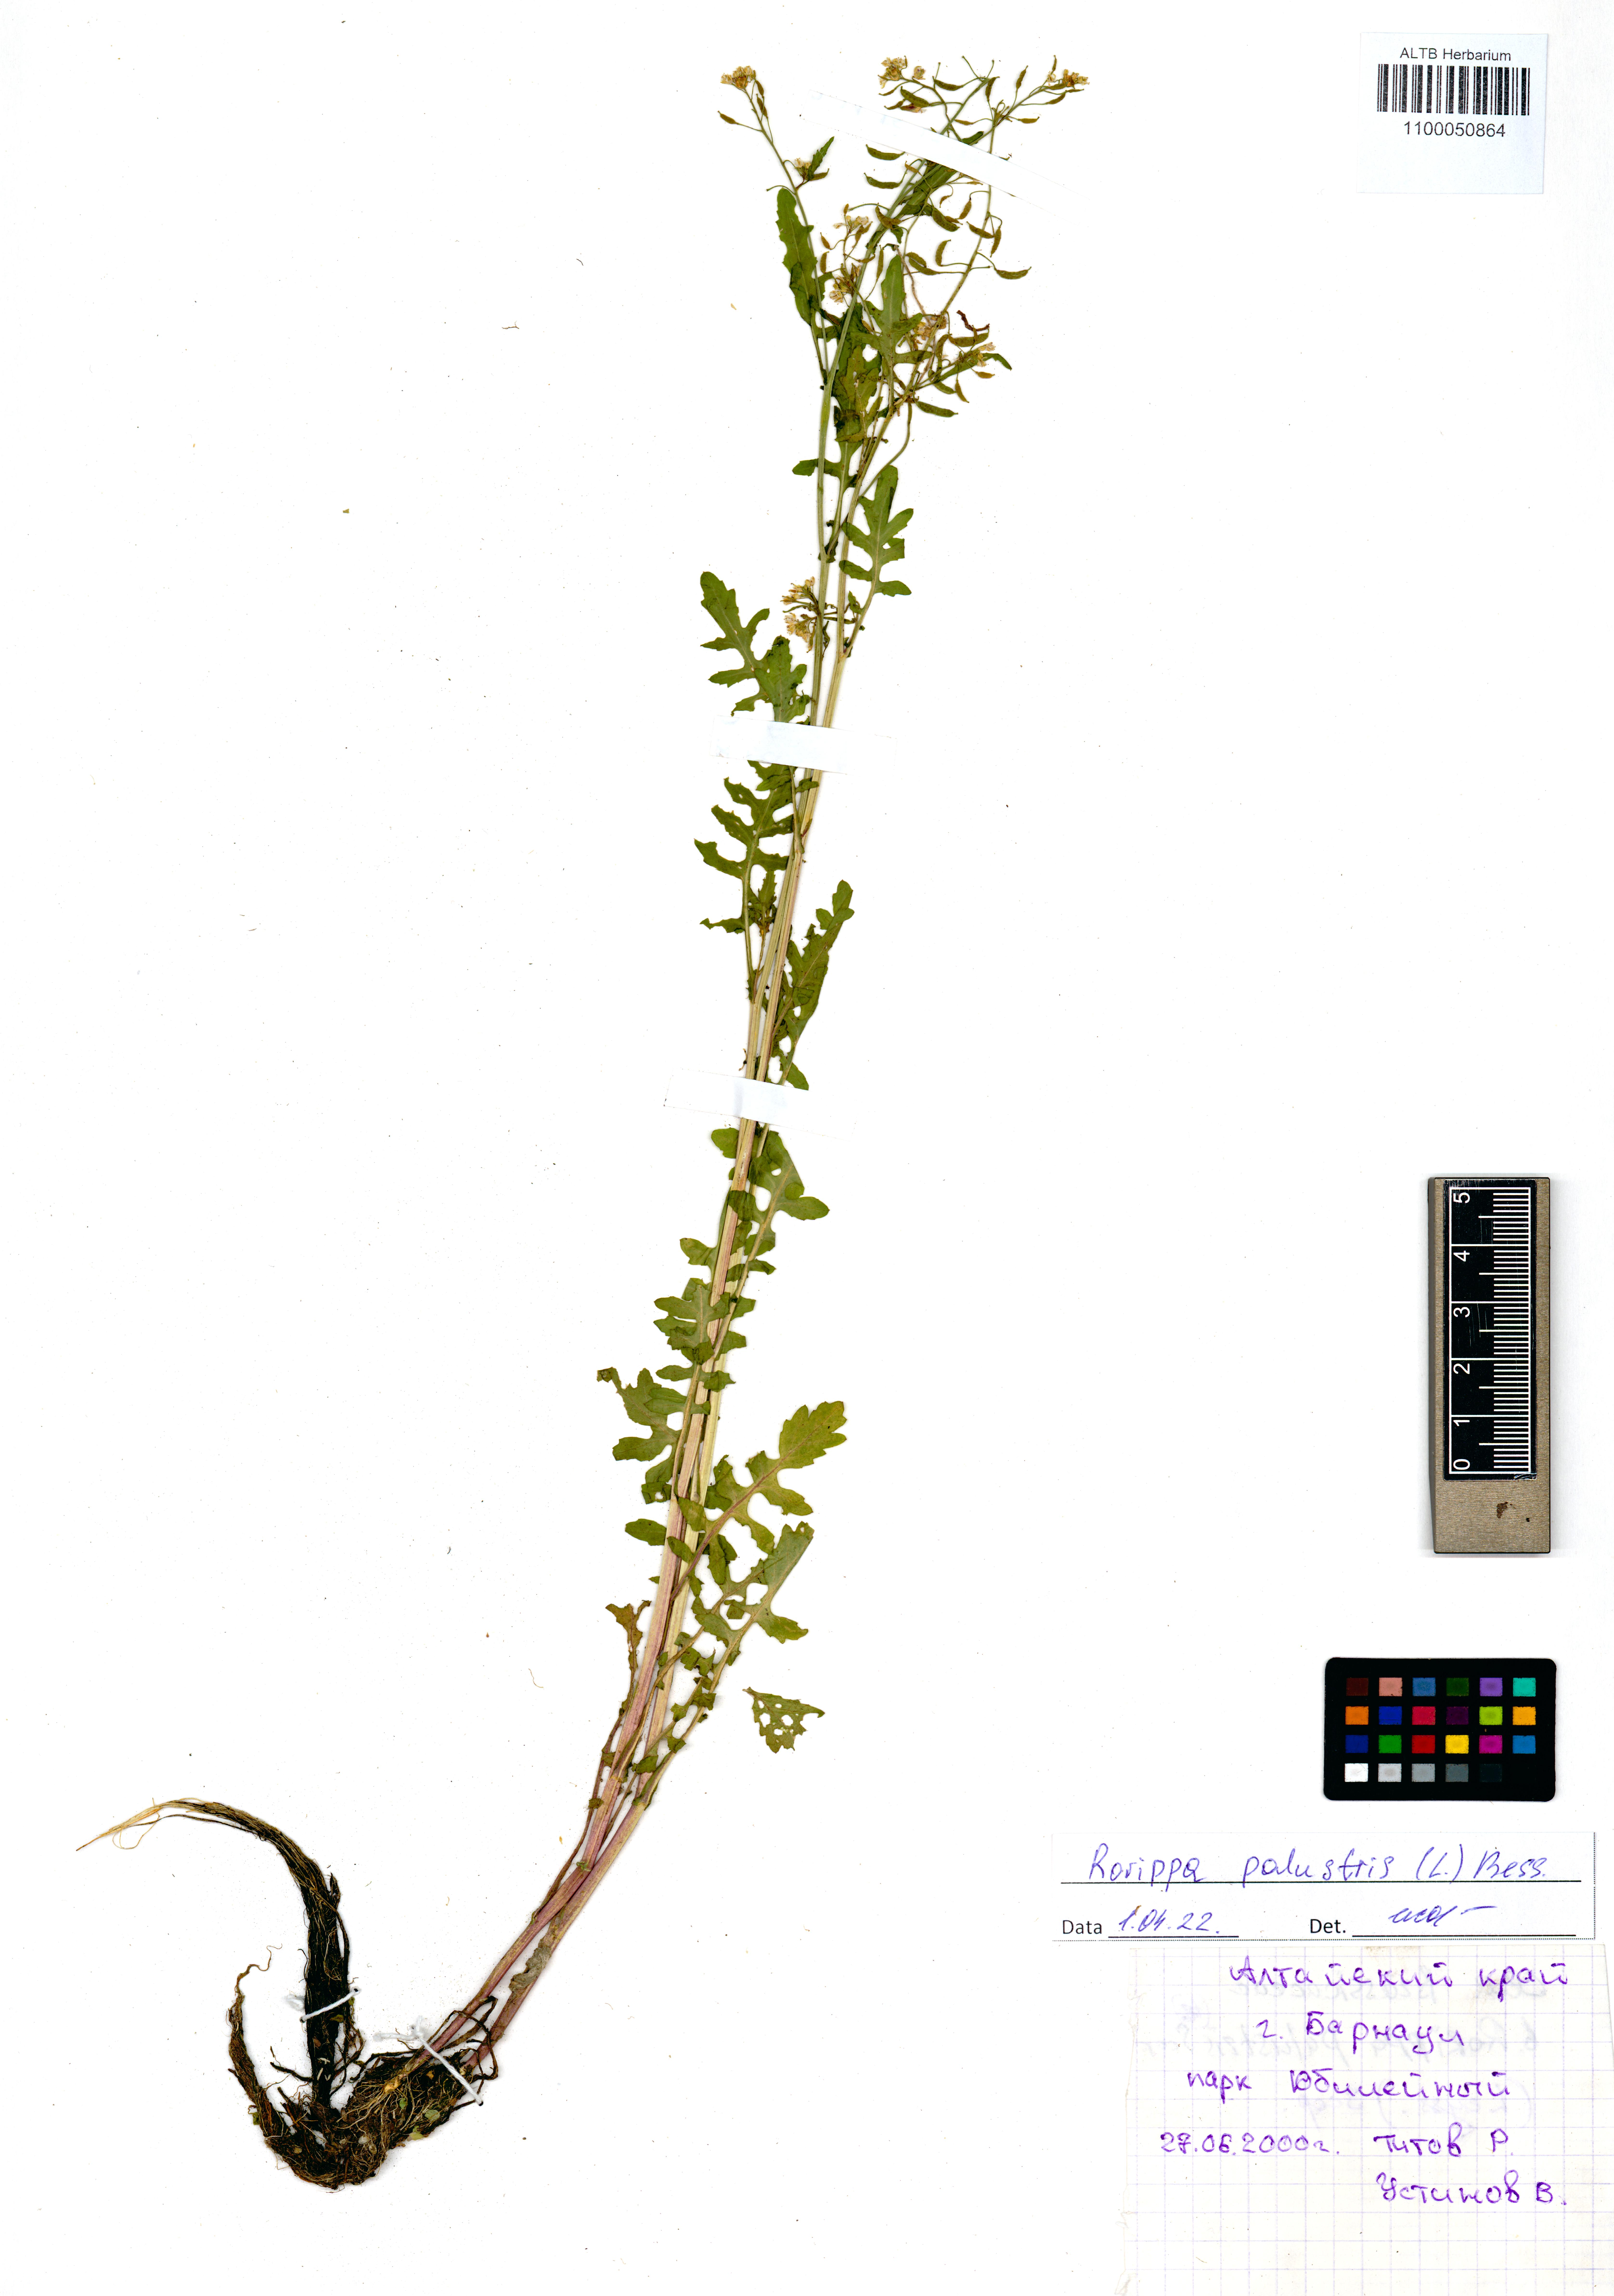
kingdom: Plantae
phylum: Tracheophyta
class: Magnoliopsida
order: Brassicales
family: Brassicaceae
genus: Rorippa
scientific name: Rorippa palustris
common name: Marsh yellow-cress
